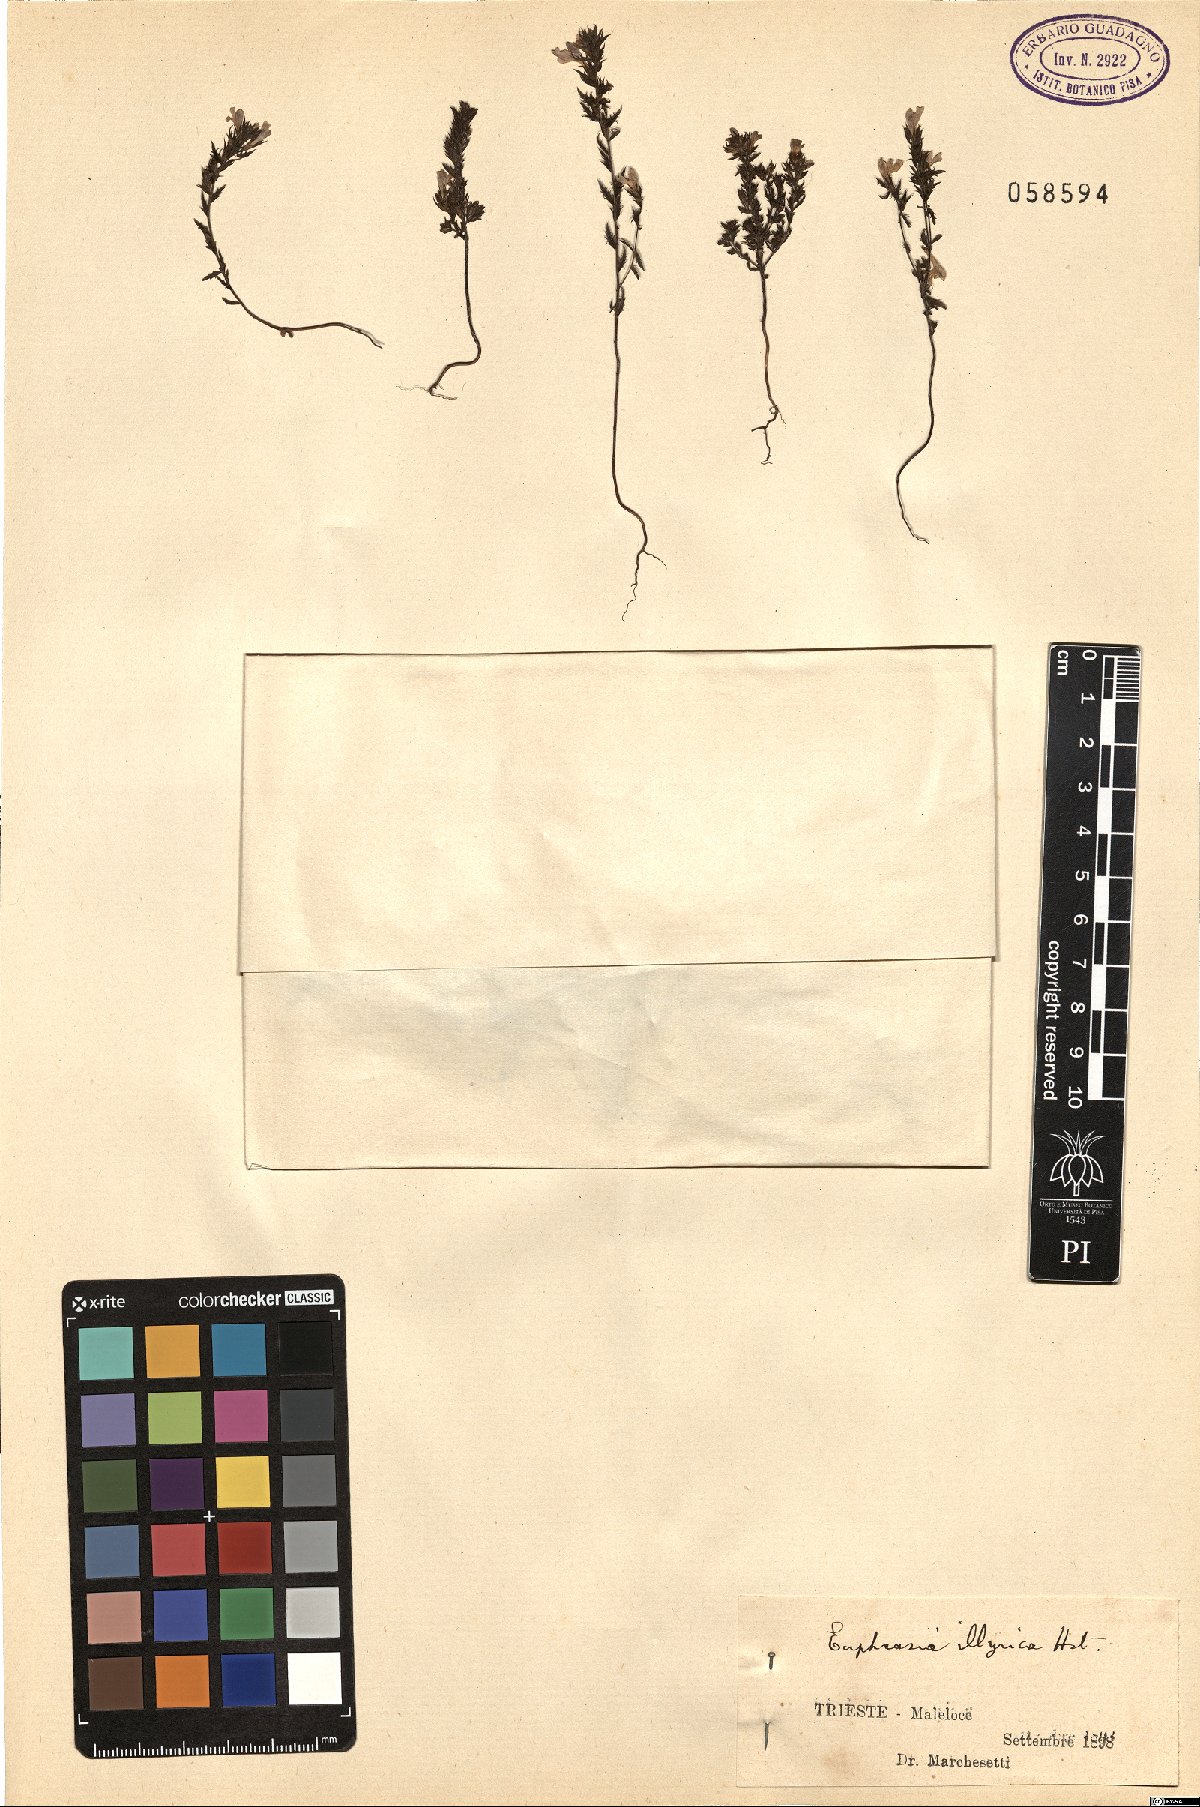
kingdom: Plantae
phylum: Tracheophyta
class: Magnoliopsida
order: Lamiales
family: Orobanchaceae
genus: Euphrasia
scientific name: Euphrasia illyrica
